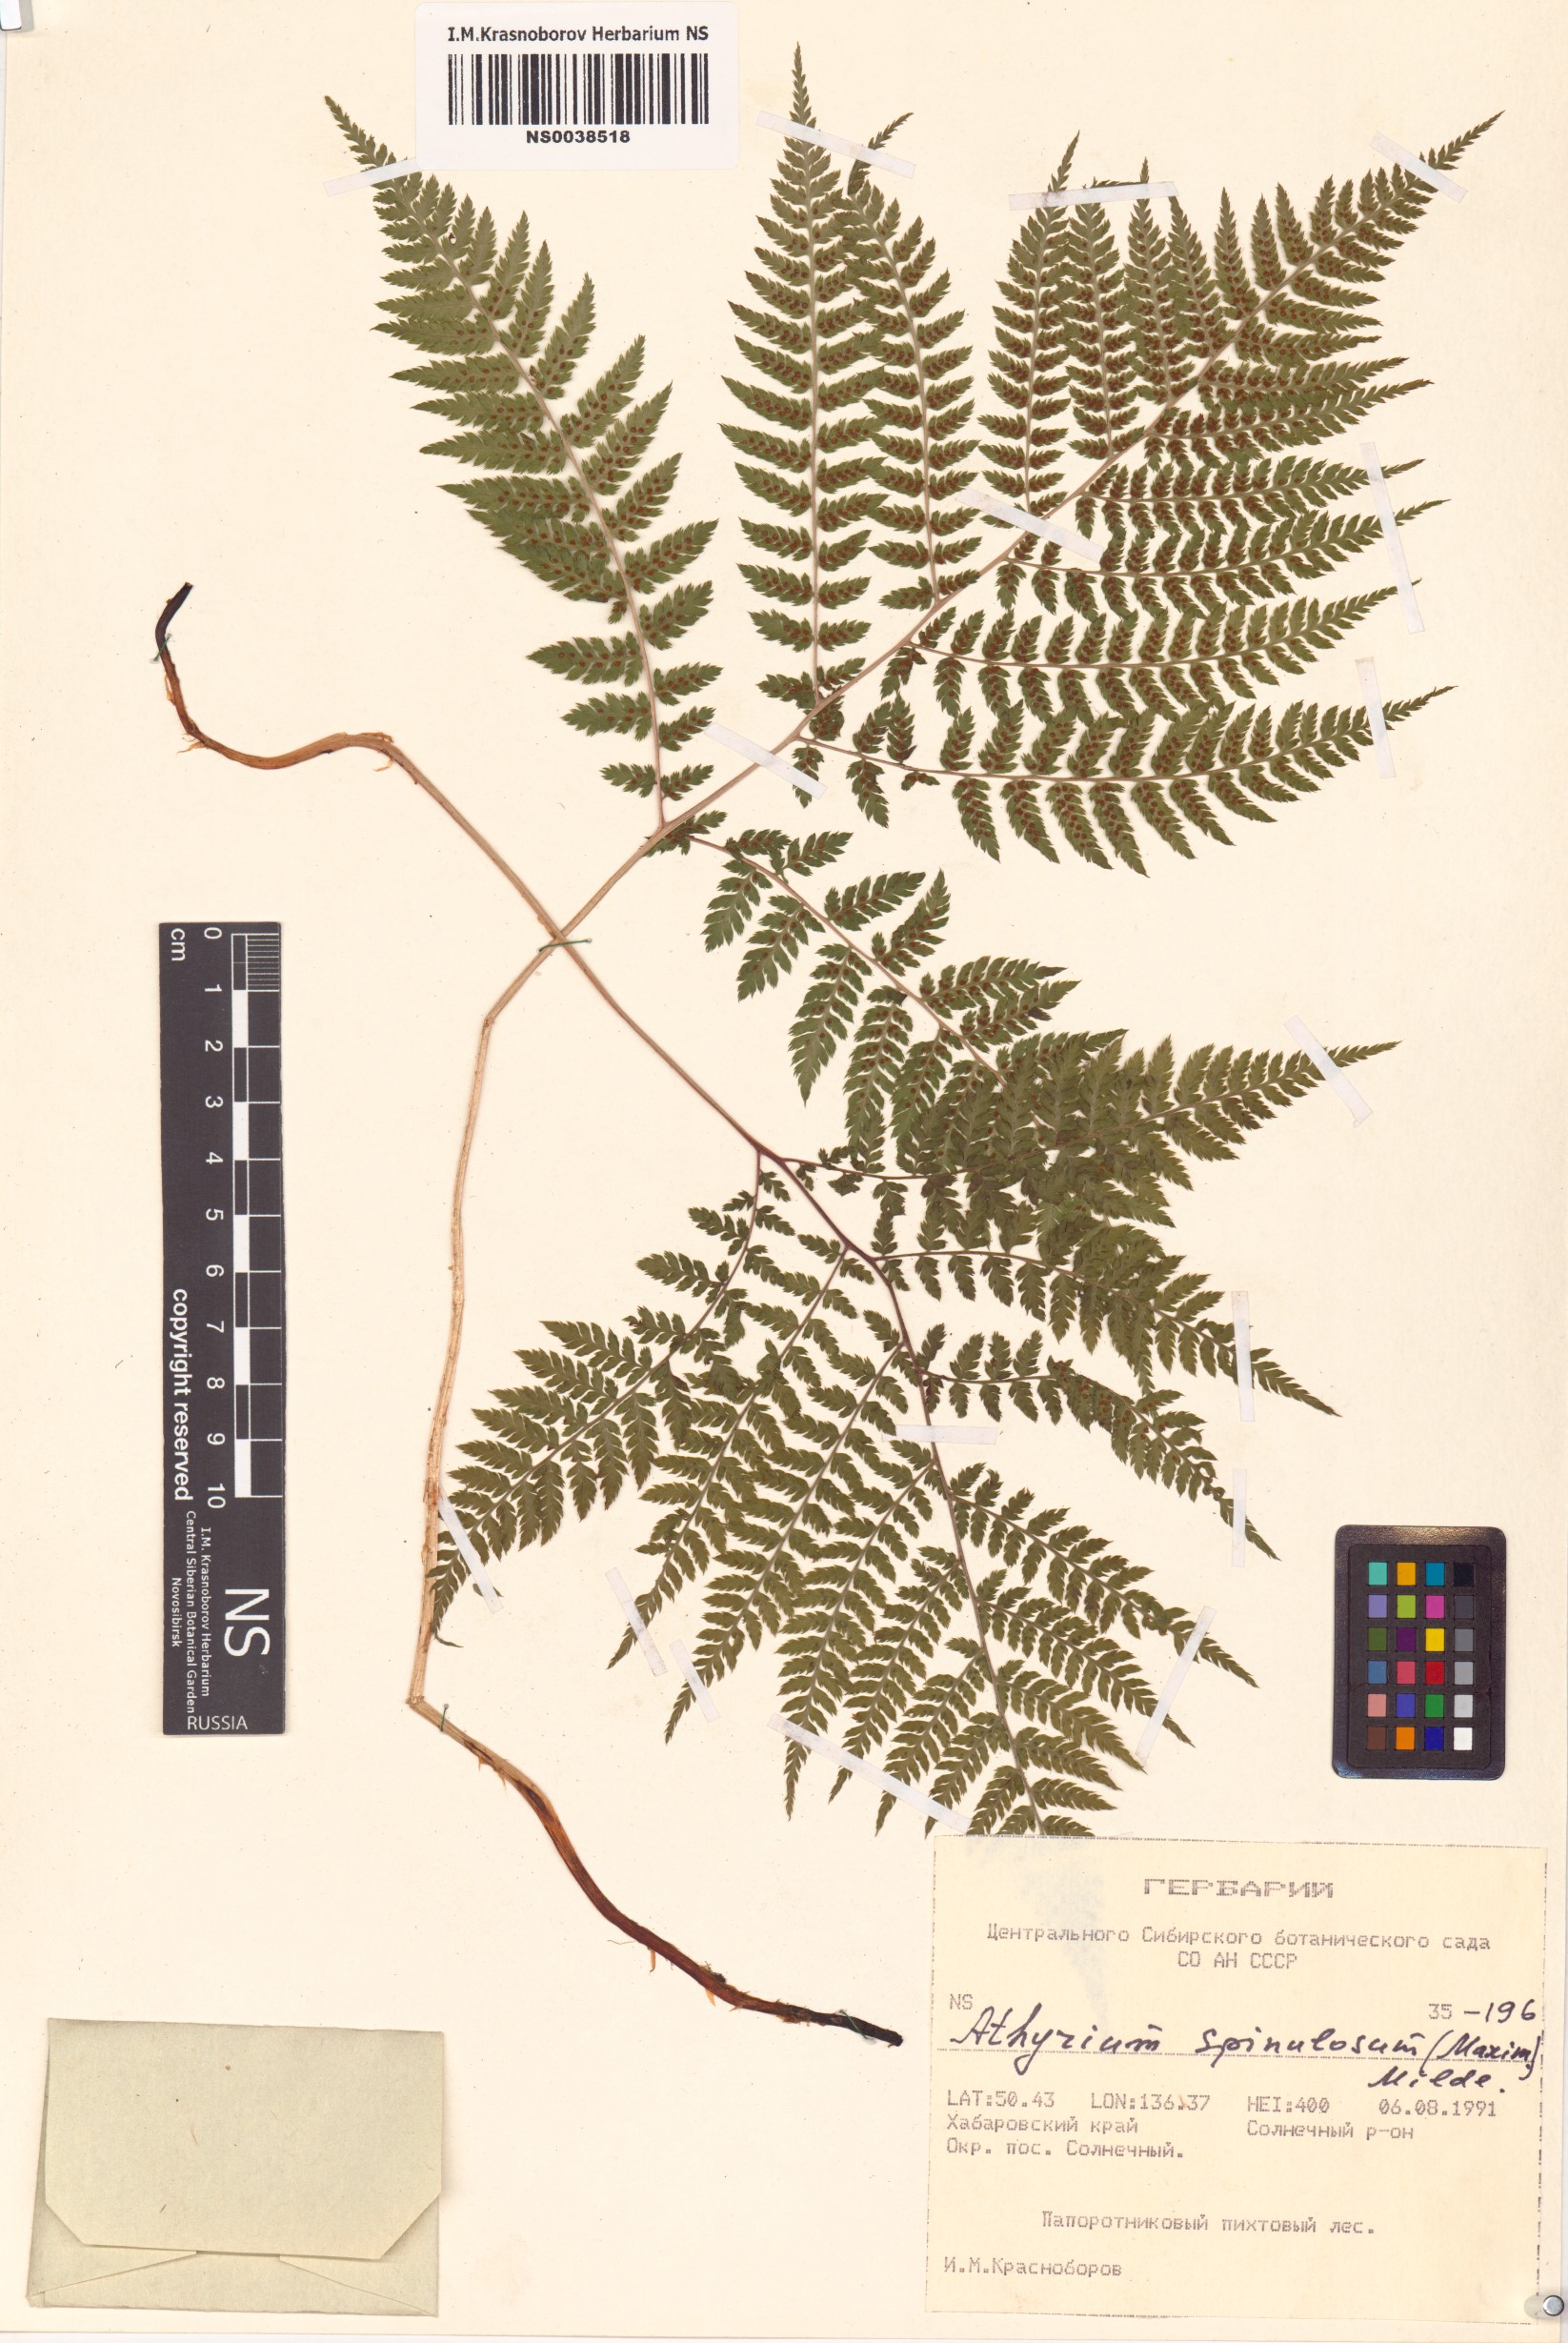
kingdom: Plantae
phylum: Tracheophyta
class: Polypodiopsida
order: Polypodiales
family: Athyriaceae
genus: Athyrium
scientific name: Athyrium spinulosum
